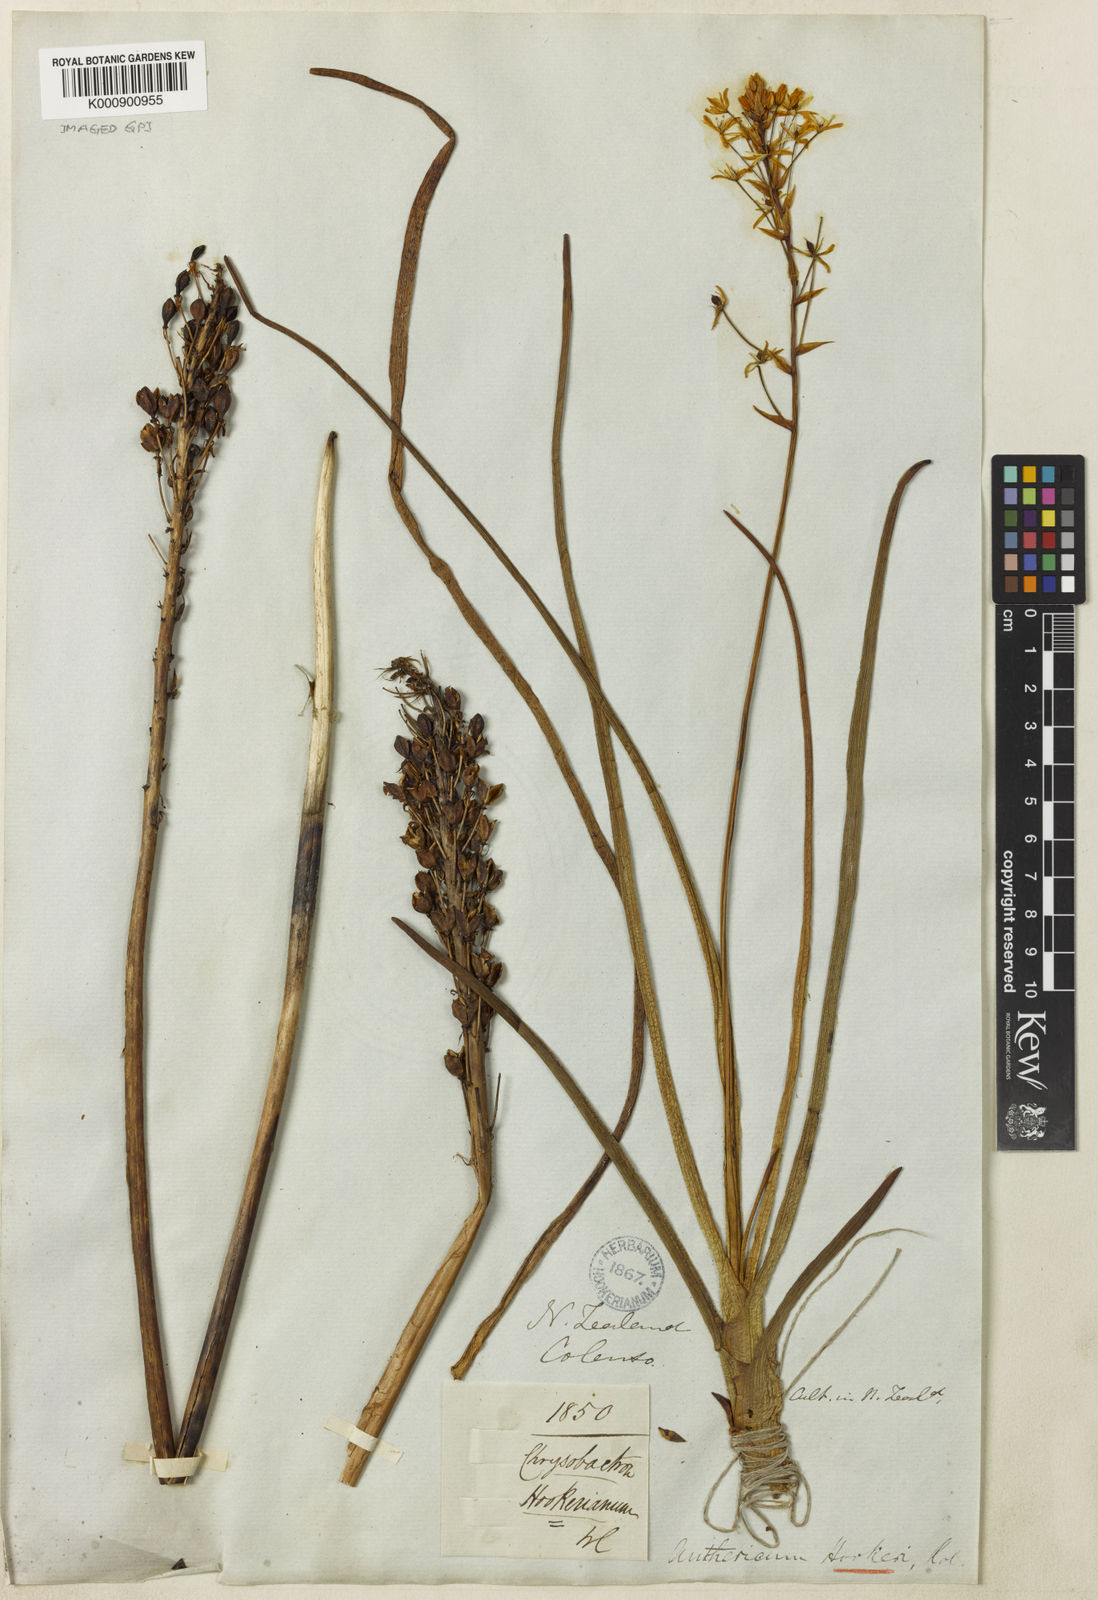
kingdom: Plantae
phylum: Tracheophyta
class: Liliopsida
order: Asparagales
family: Asphodelaceae
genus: Bulbinella
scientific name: Bulbinella
